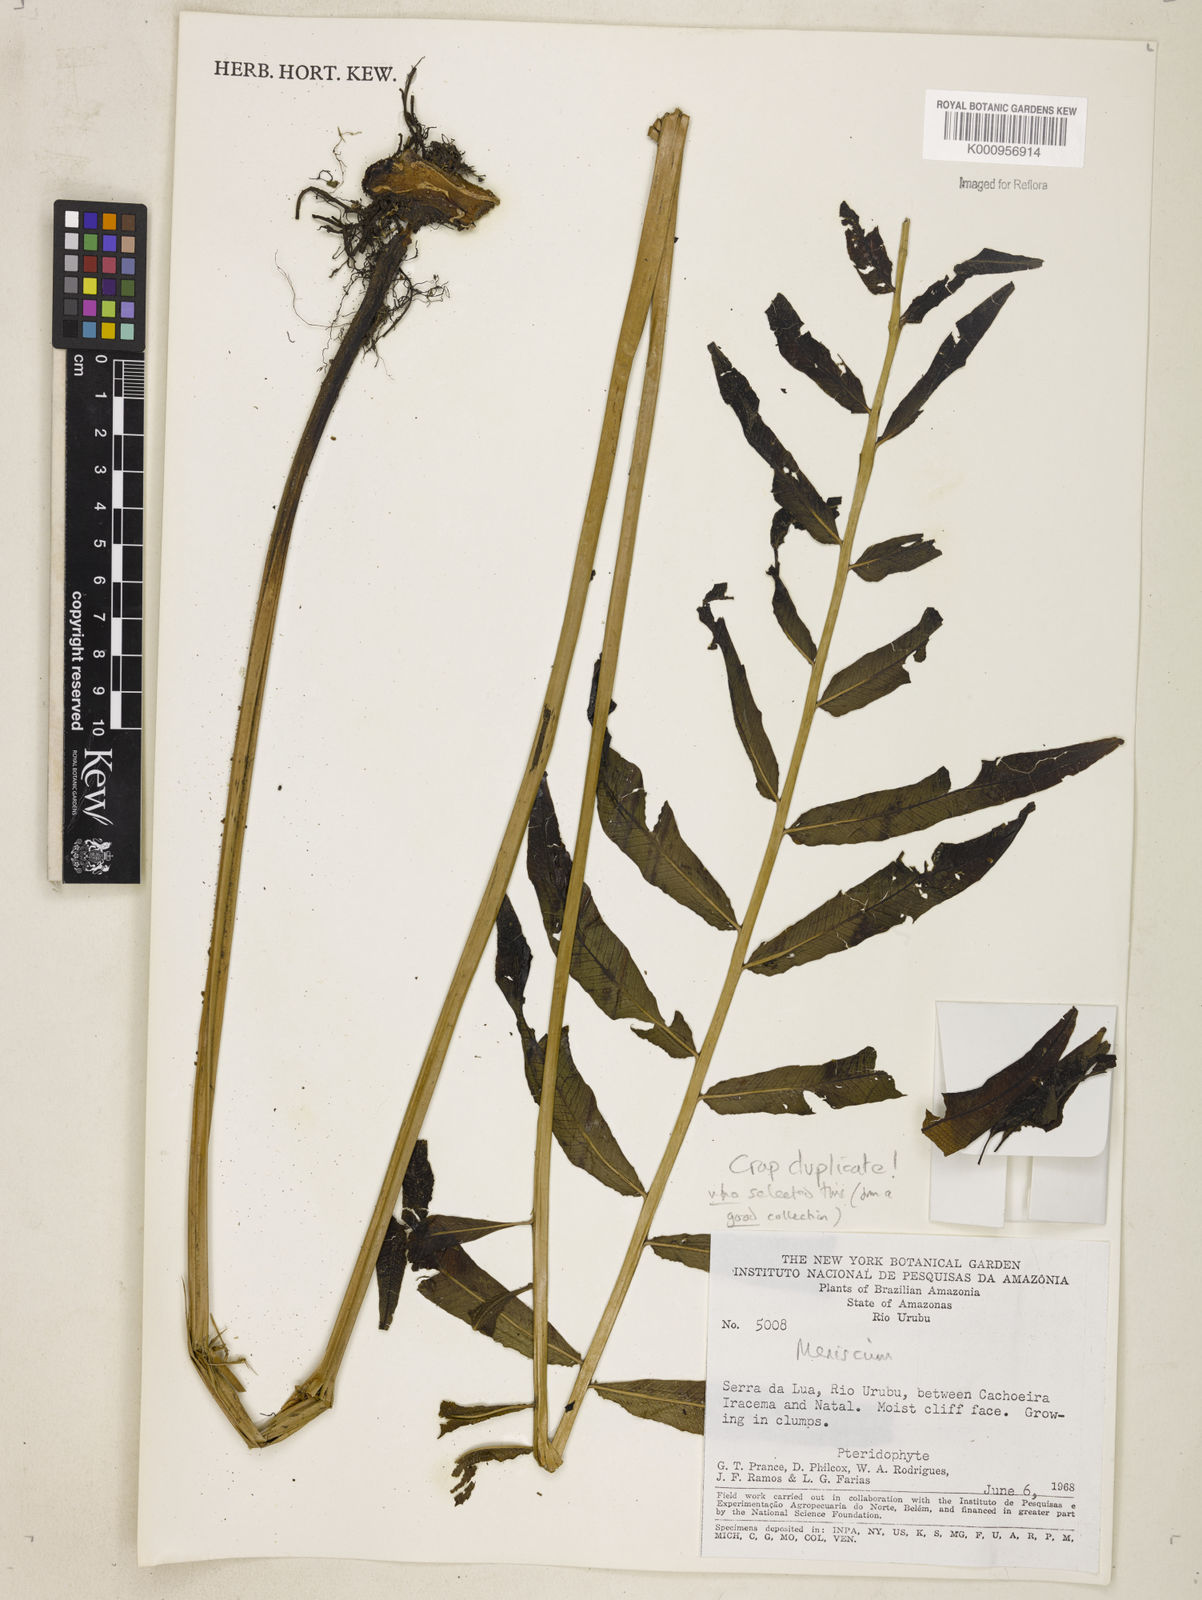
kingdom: Plantae
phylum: Tracheophyta
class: Polypodiopsida
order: Polypodiales
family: Thelypteridaceae
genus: Meniscium
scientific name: Meniscium
